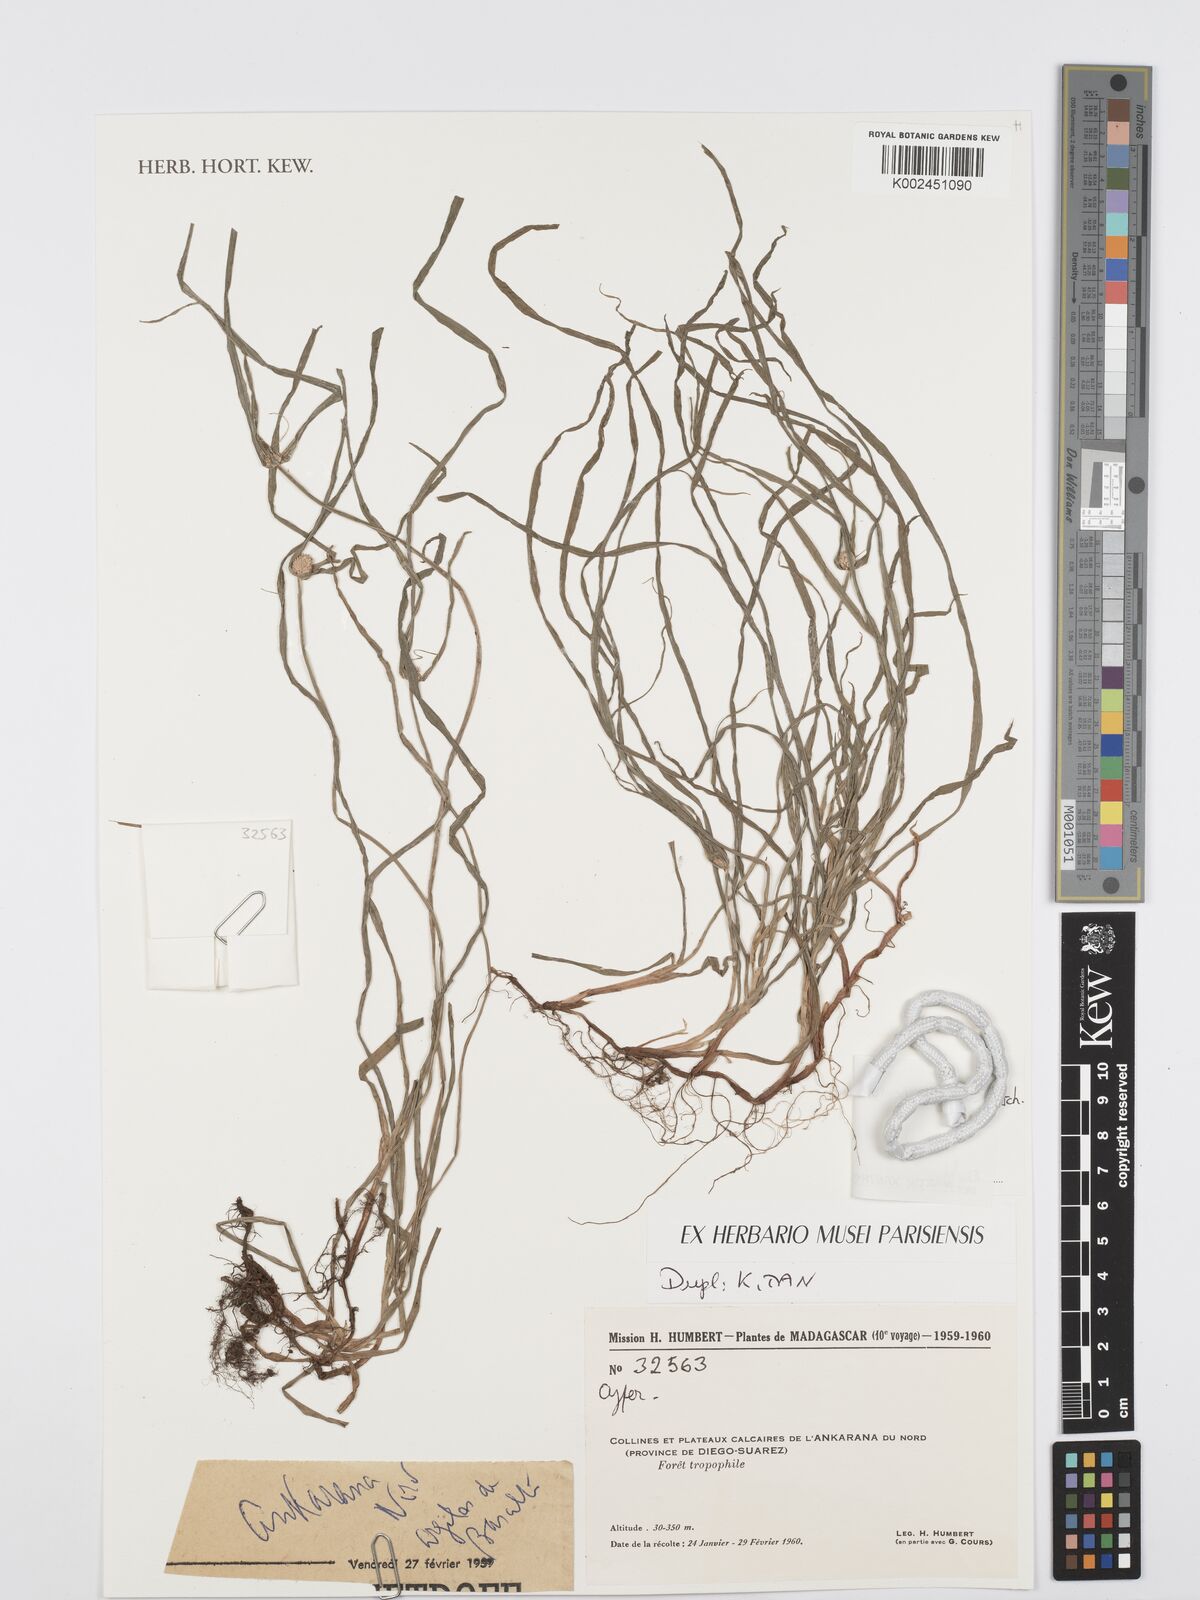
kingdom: Plantae
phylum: Tracheophyta
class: Liliopsida
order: Poales
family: Cyperaceae
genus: Cyperus
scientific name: Cyperus nemoralis
